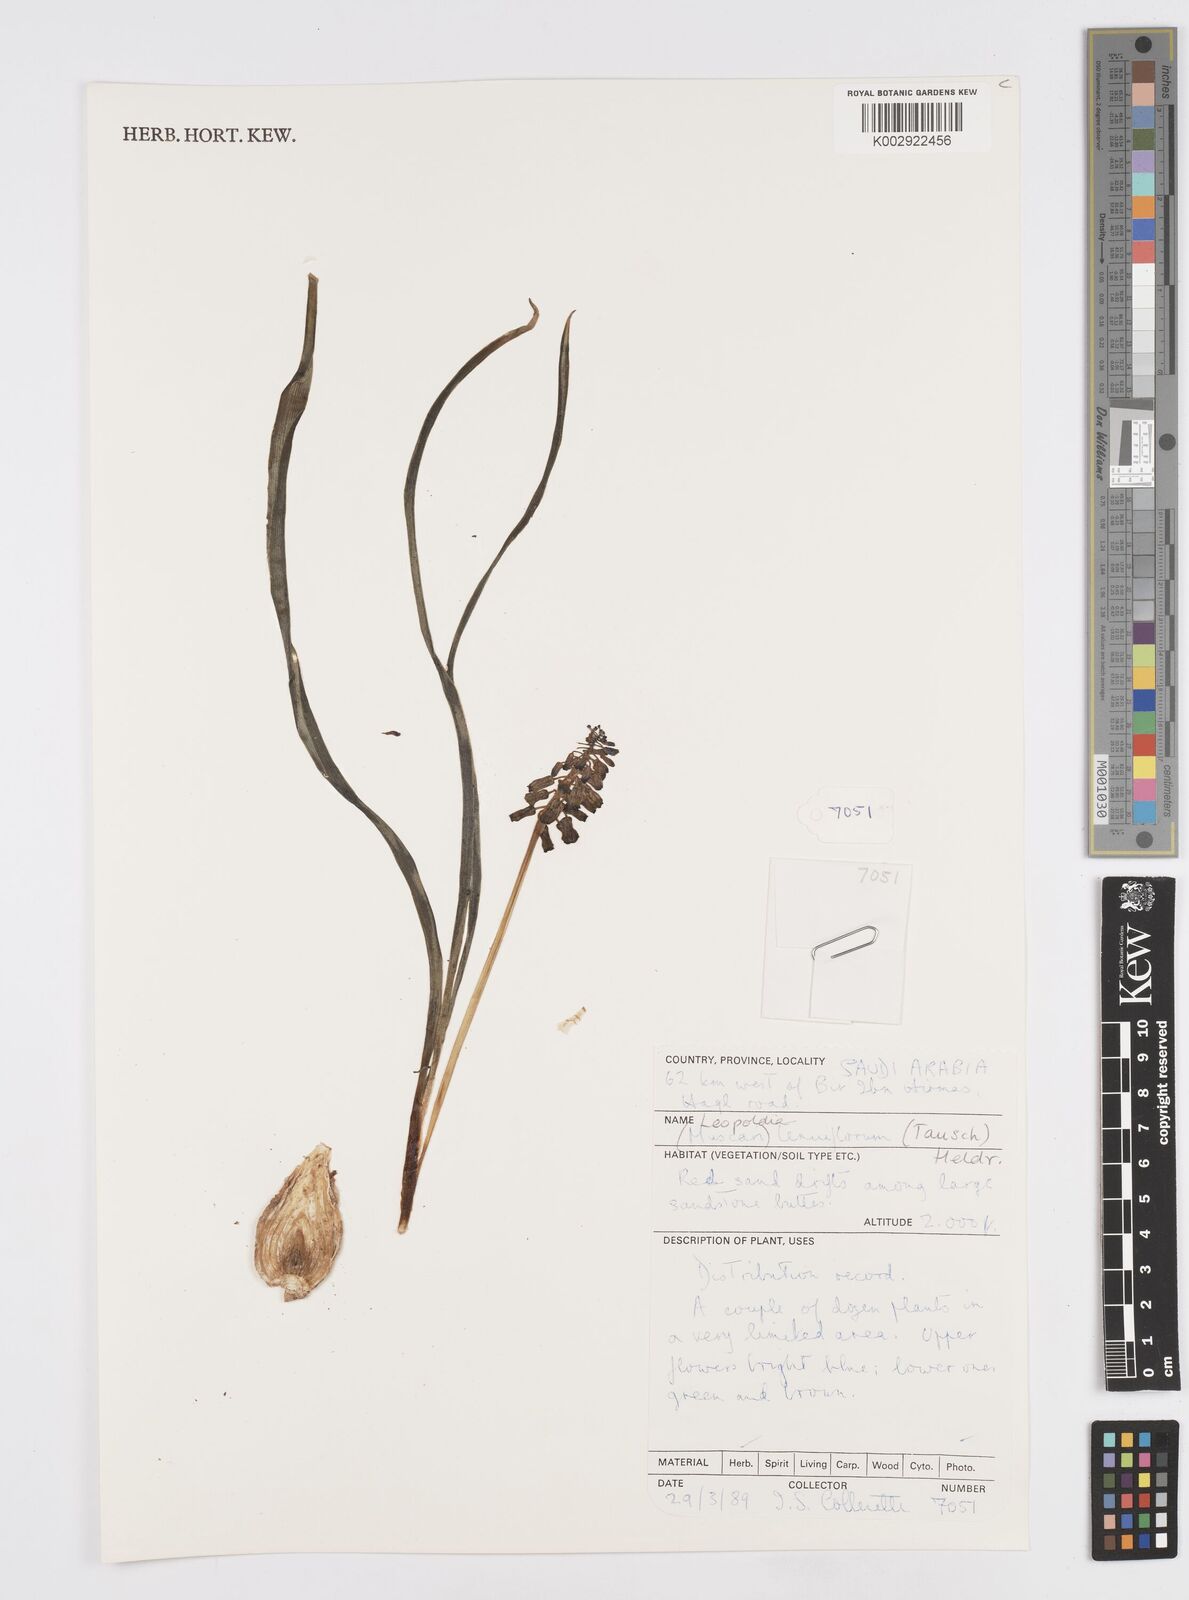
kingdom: Plantae
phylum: Tracheophyta
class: Liliopsida
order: Asparagales
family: Asparagaceae
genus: Muscari
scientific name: Muscari tenuiflorum
